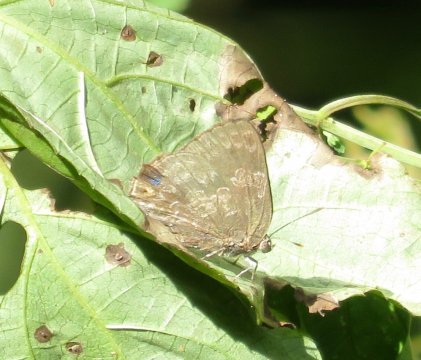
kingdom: Animalia
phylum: Arthropoda
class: Insecta
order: Lepidoptera
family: Lycaenidae
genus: Contrafacia
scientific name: Contrafacia
